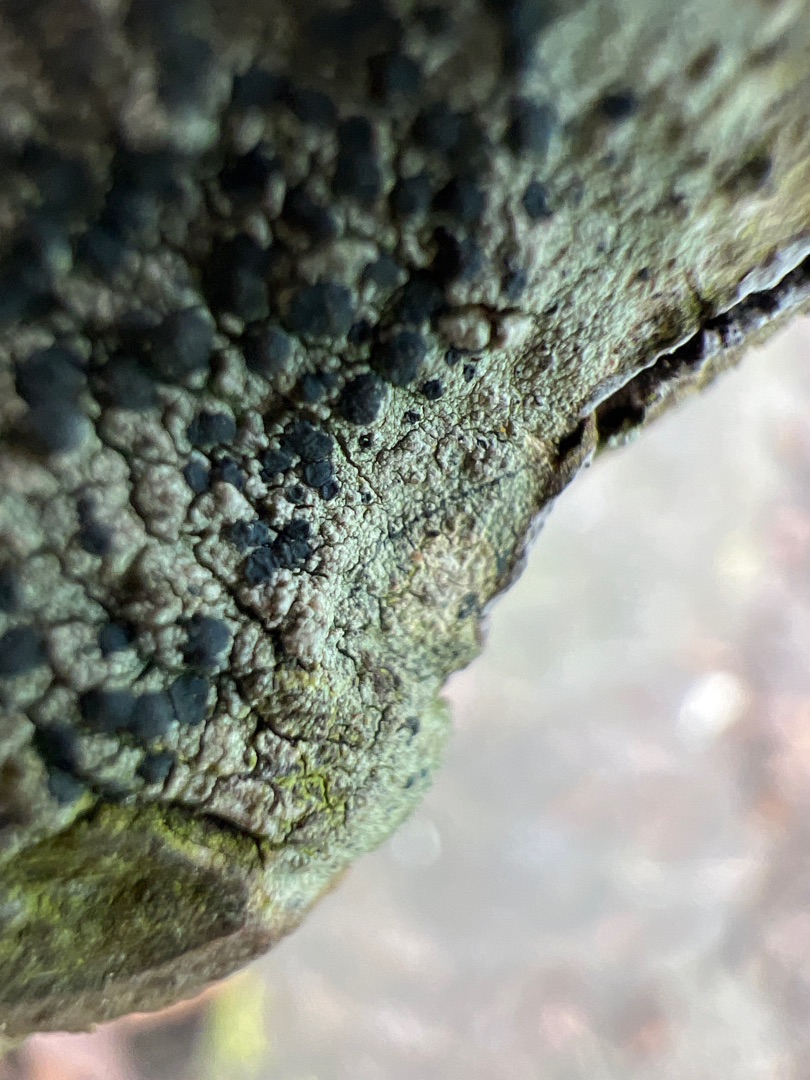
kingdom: Fungi
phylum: Ascomycota
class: Lecanoromycetes
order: Lecanorales
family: Lecanoraceae
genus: Lecidella
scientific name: Lecidella elaeochroma
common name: Grågrøn skivelav
